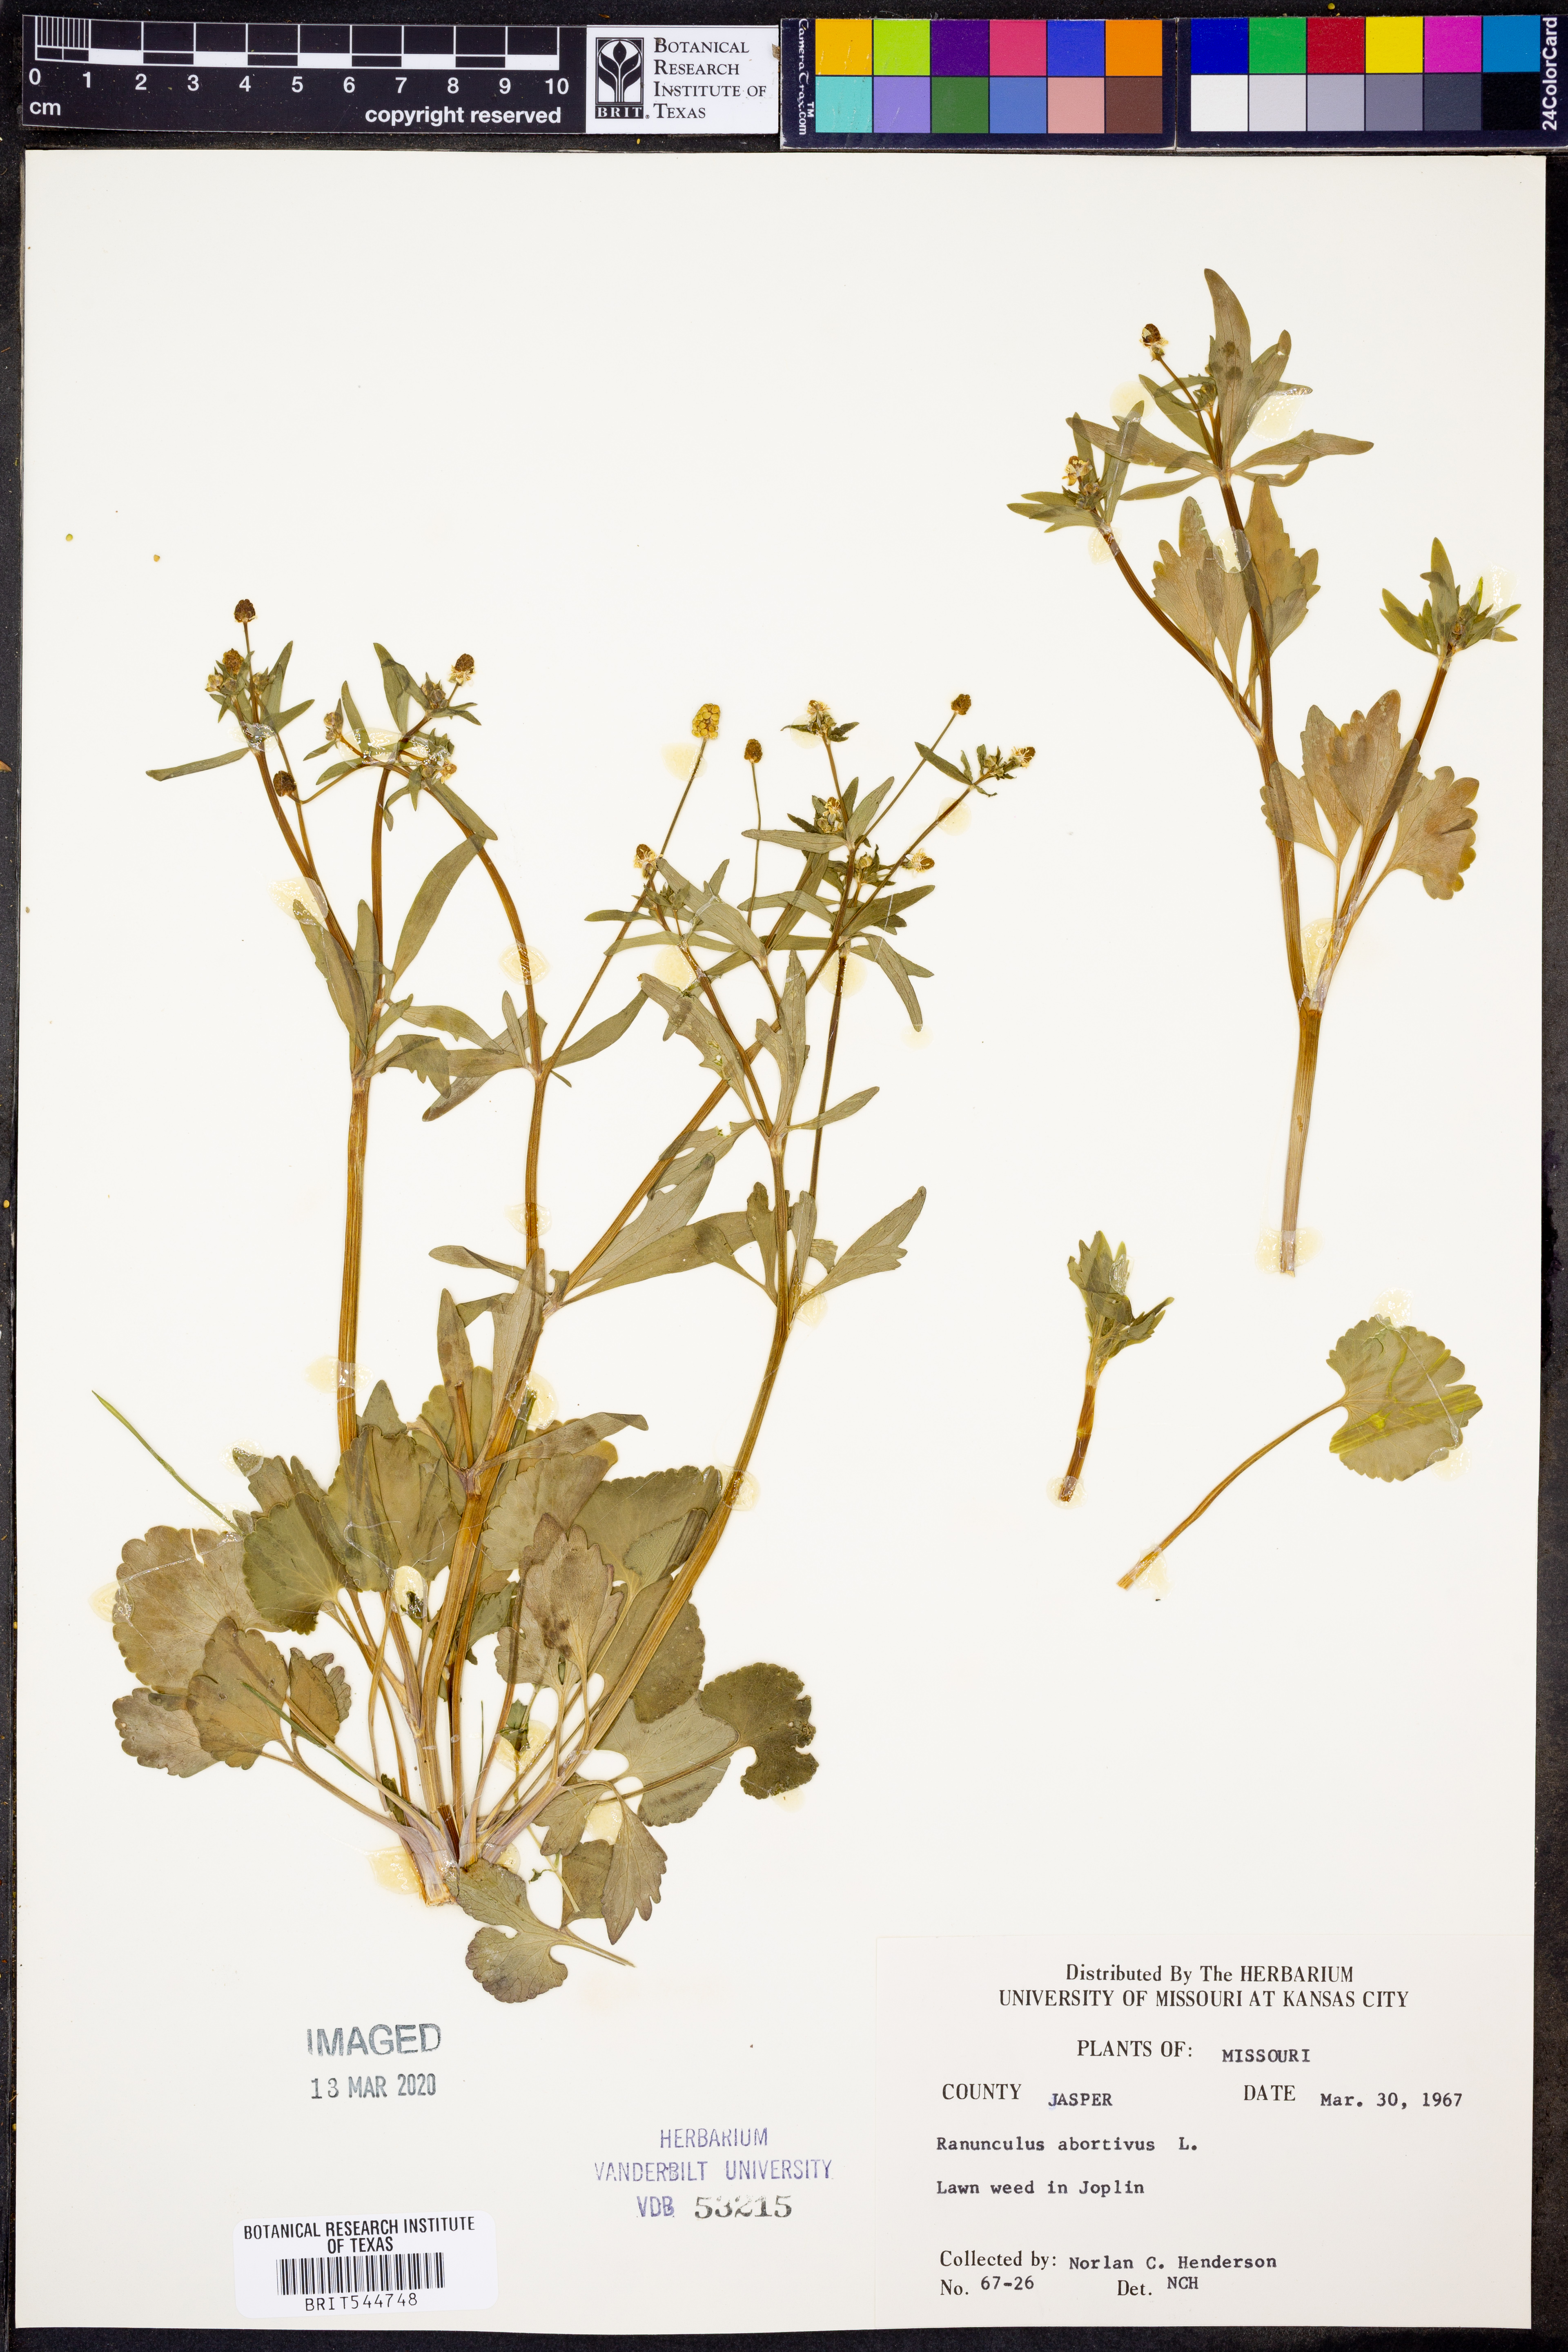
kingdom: Plantae
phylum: Tracheophyta
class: Magnoliopsida
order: Ranunculales
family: Ranunculaceae
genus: Ranunculus
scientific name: Ranunculus abortivus
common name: Early wood buttercup
